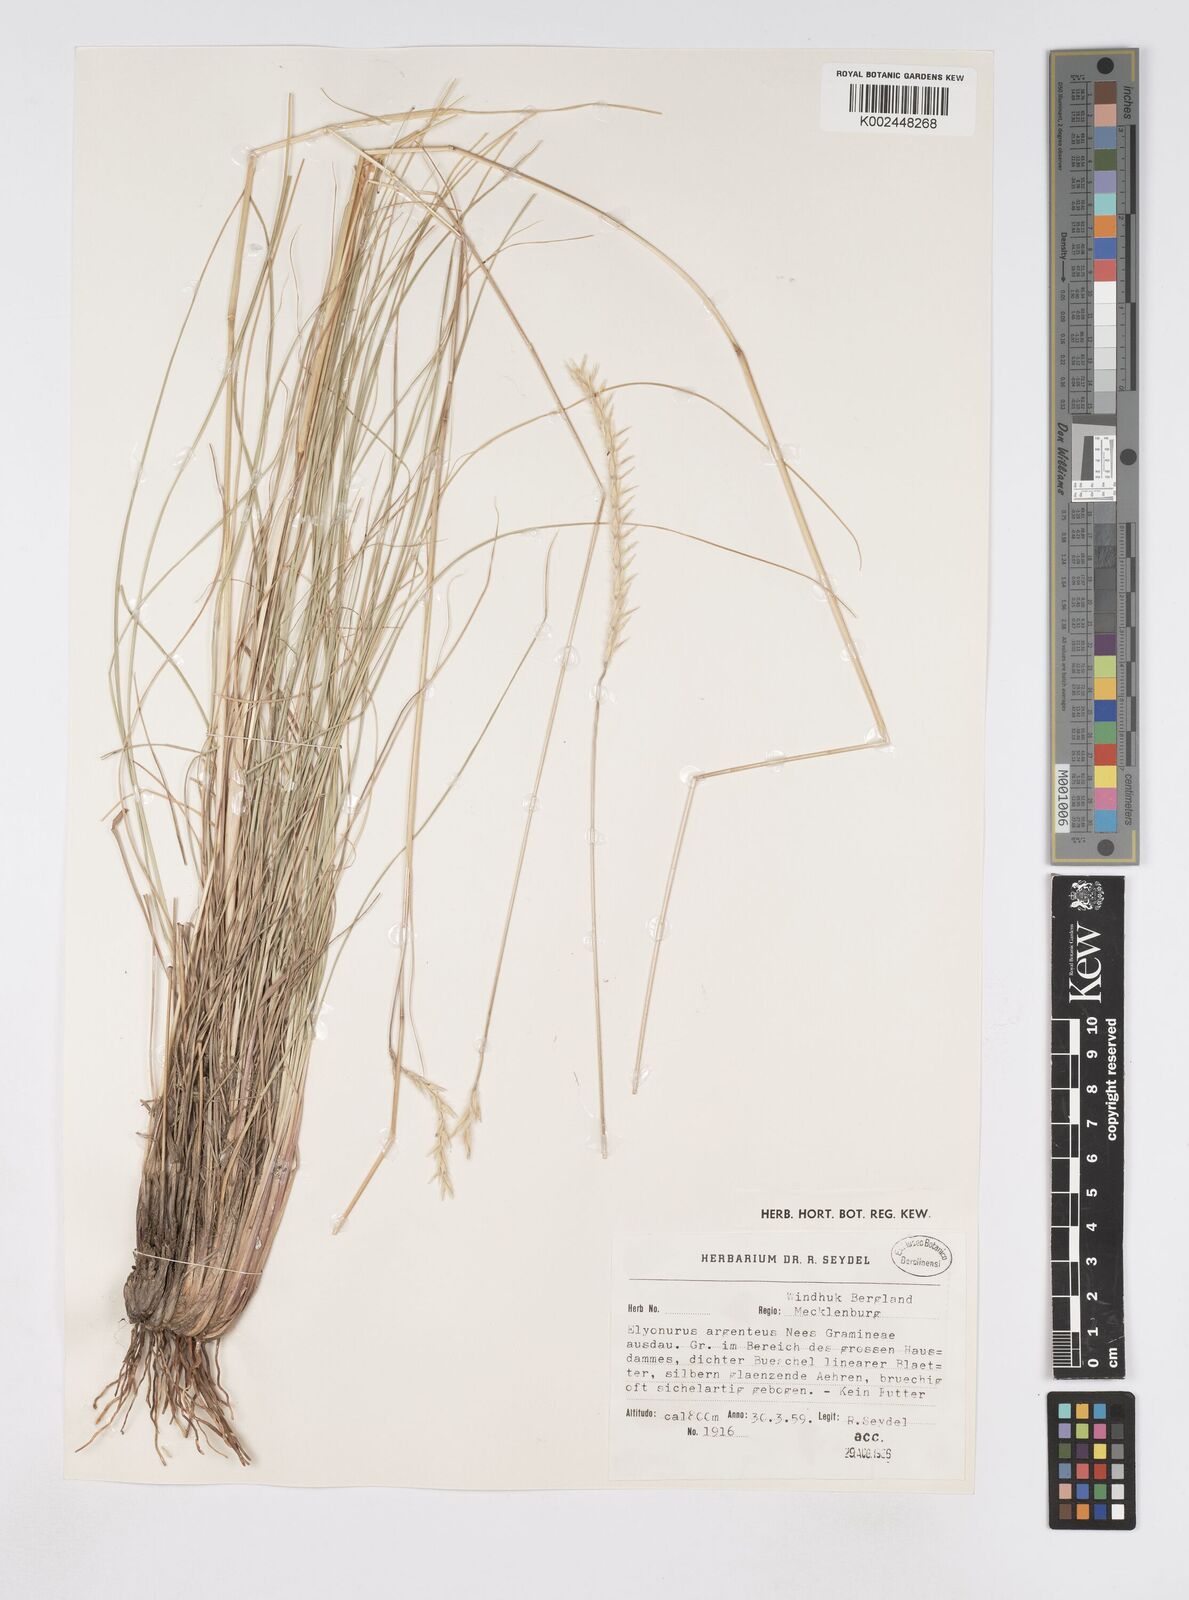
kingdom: Plantae
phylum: Tracheophyta
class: Liliopsida
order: Poales
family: Poaceae
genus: Elionurus
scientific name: Elionurus muticus
